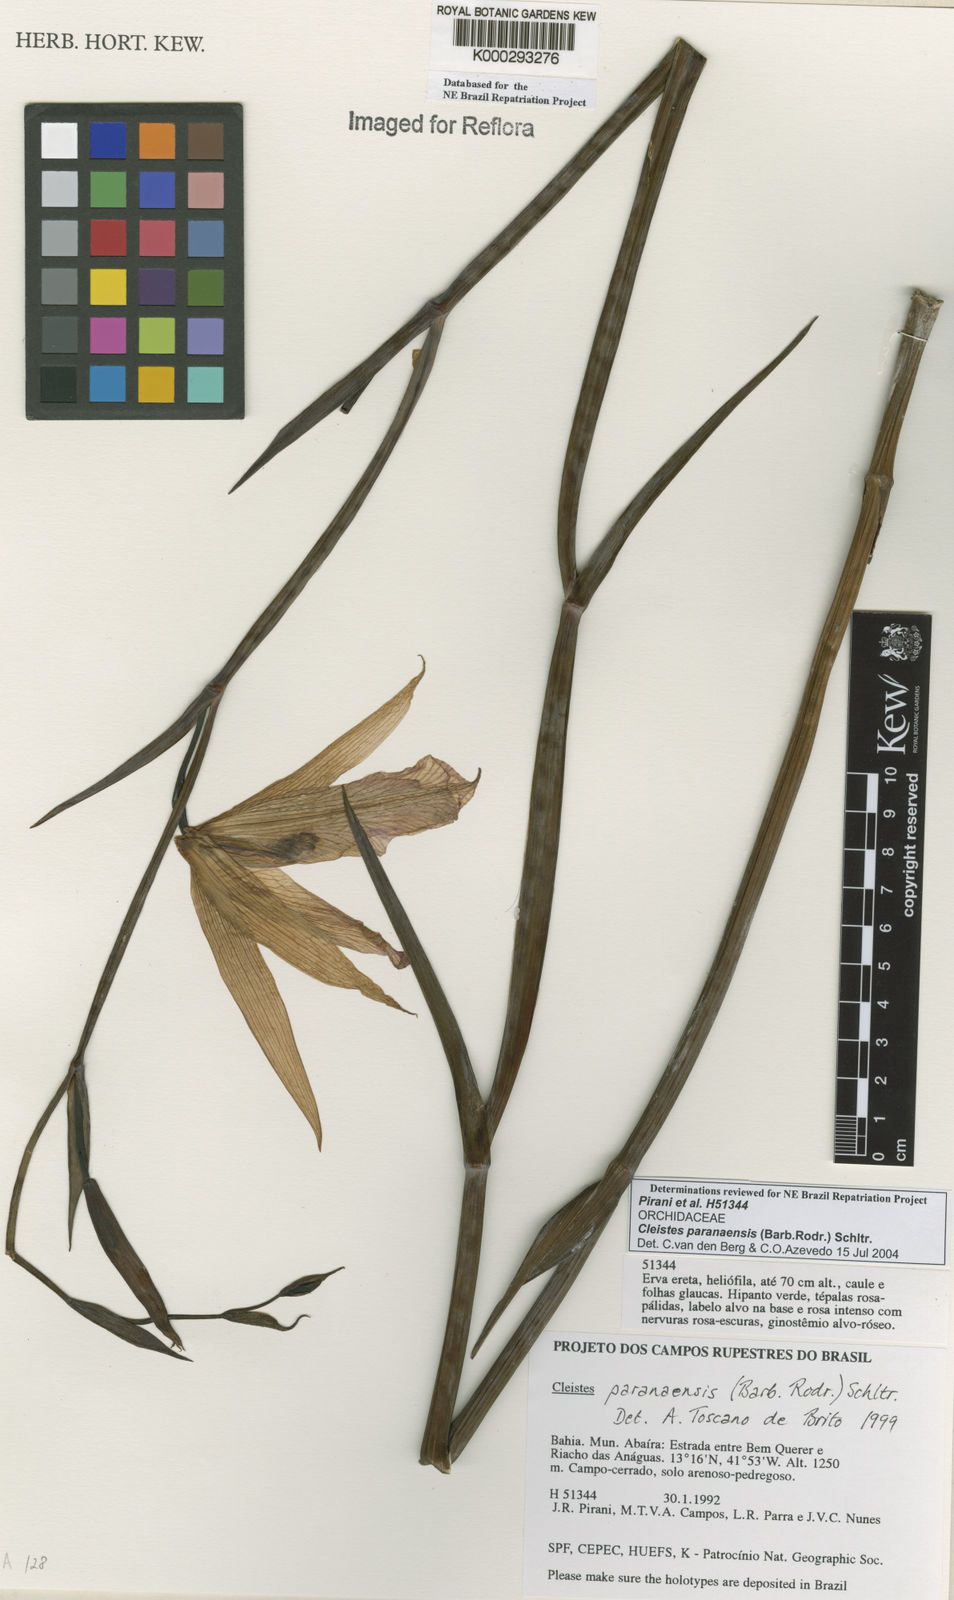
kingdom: Plantae
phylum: Tracheophyta
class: Liliopsida
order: Asparagales
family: Orchidaceae
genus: Cleistes
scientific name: Cleistes paranaensis
